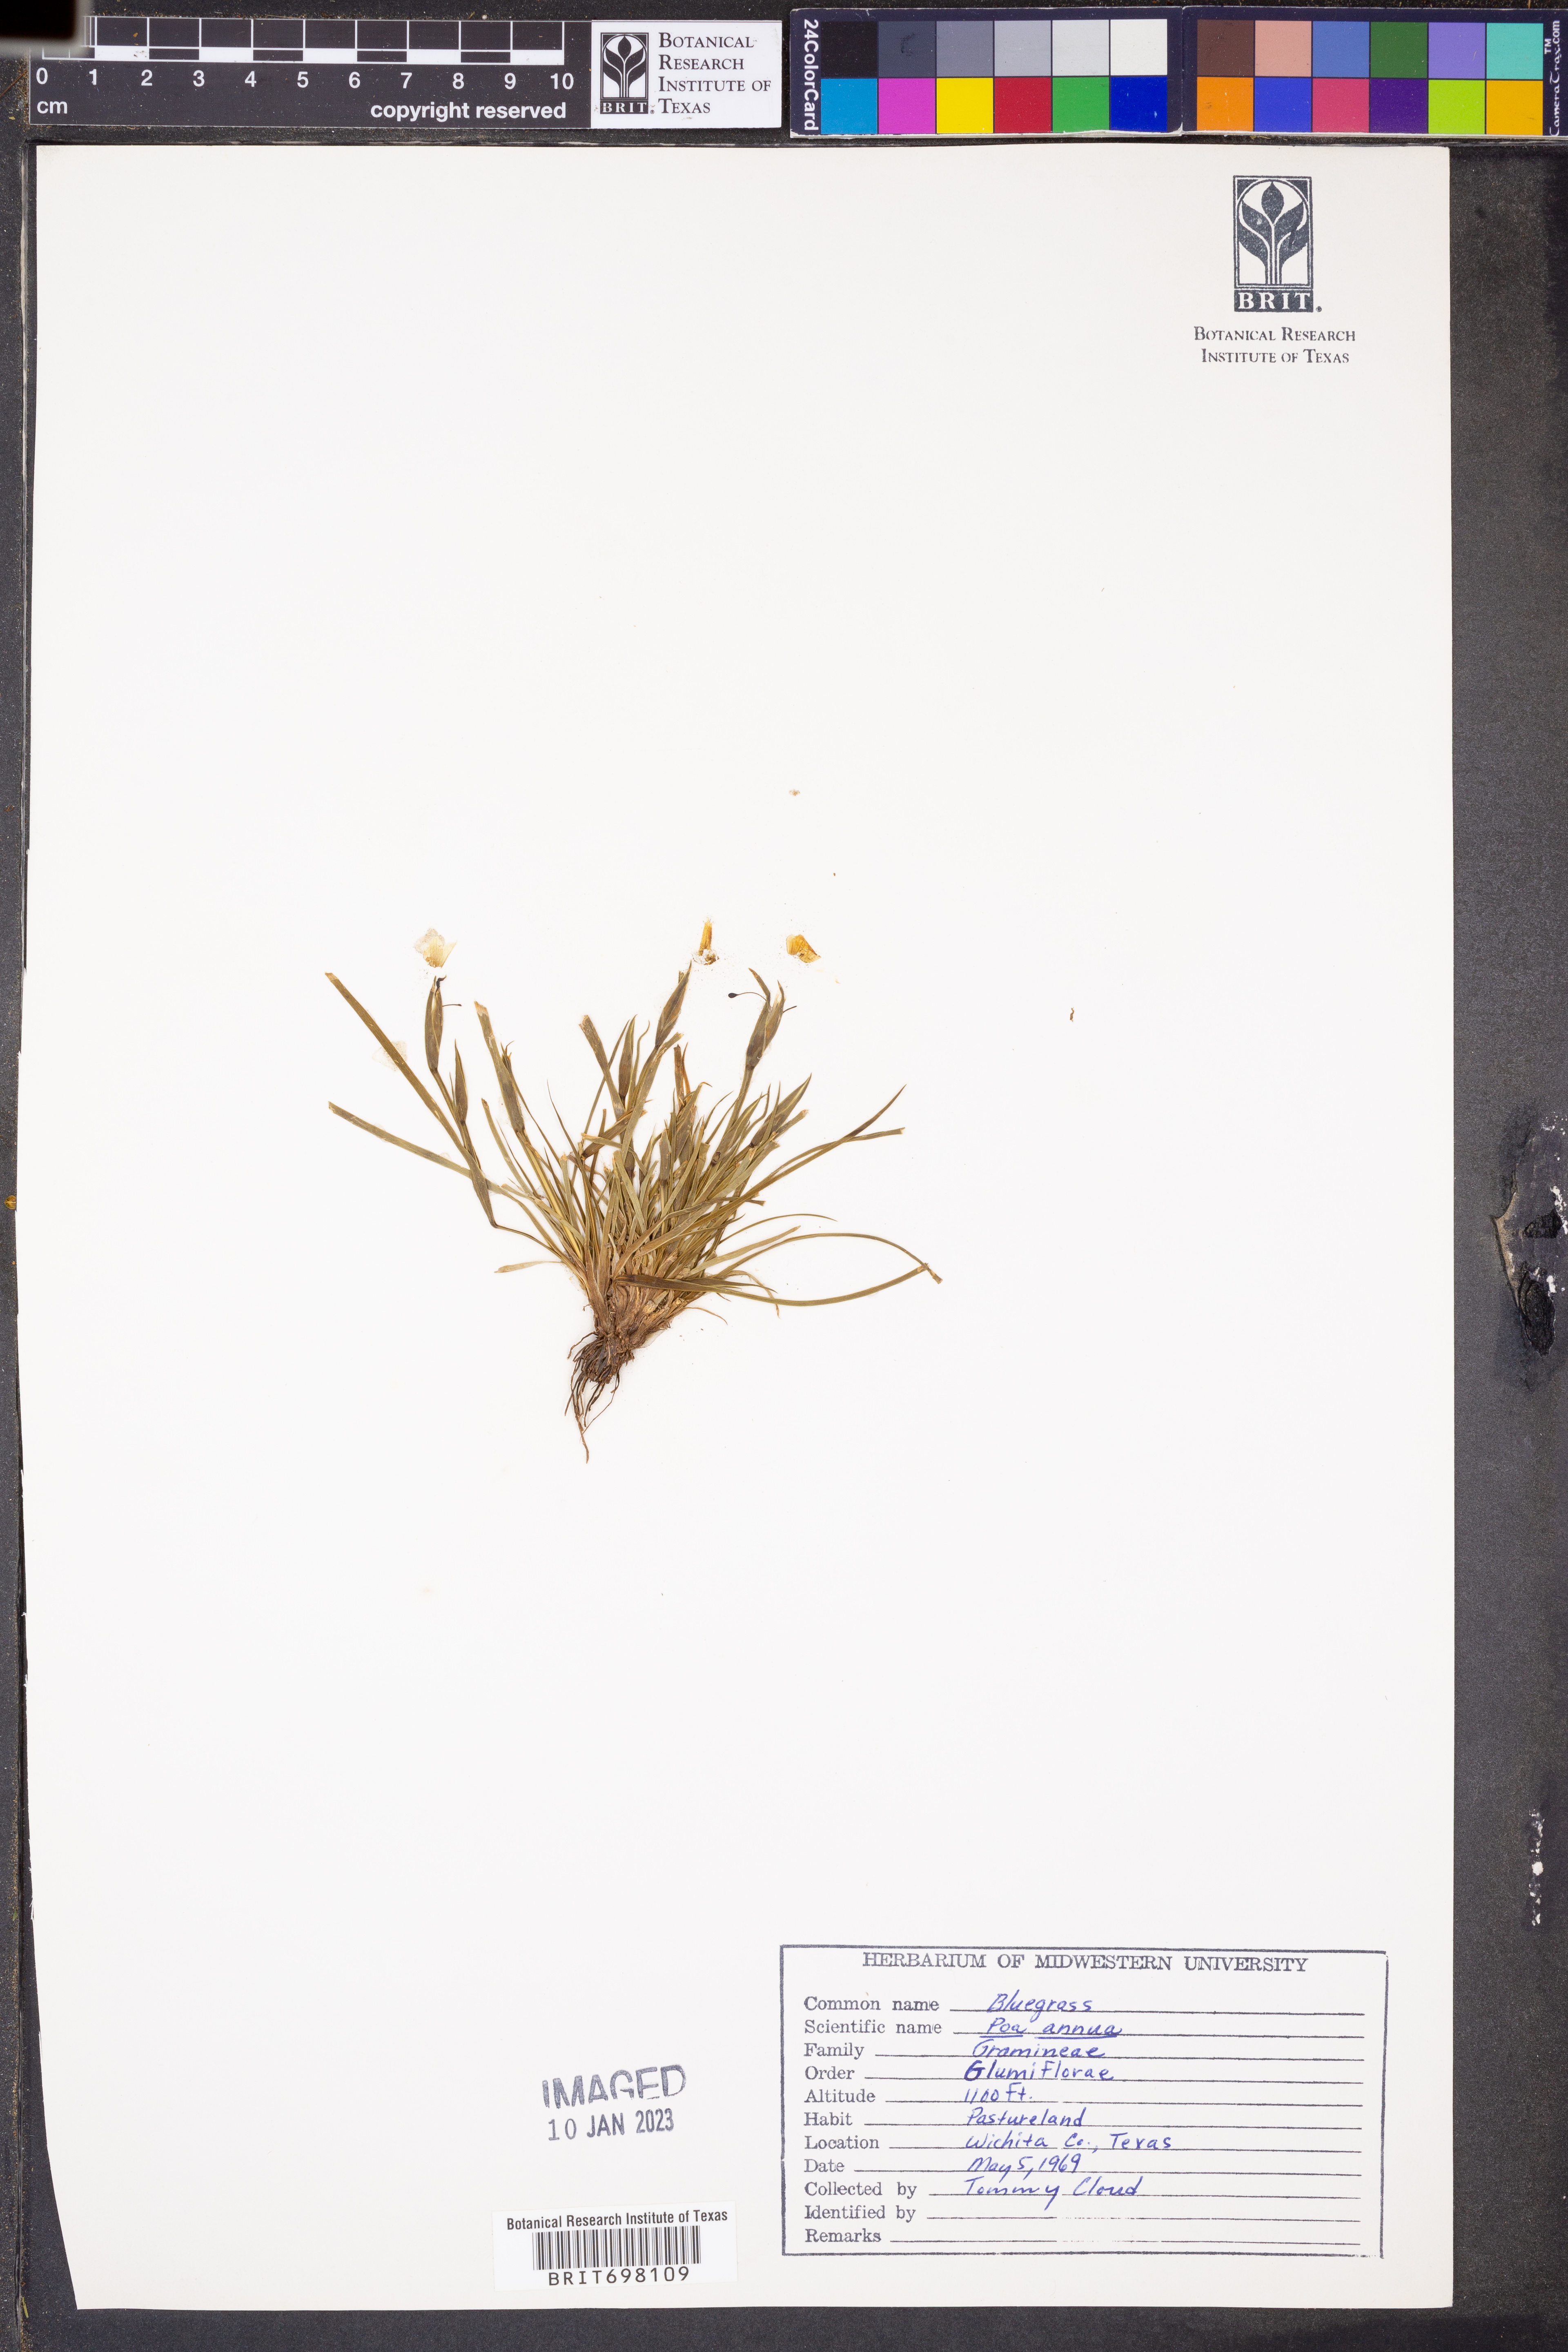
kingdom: Plantae
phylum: Tracheophyta
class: Liliopsida
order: Poales
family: Poaceae
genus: Poa
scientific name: Poa annua
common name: Annual bluegrass
